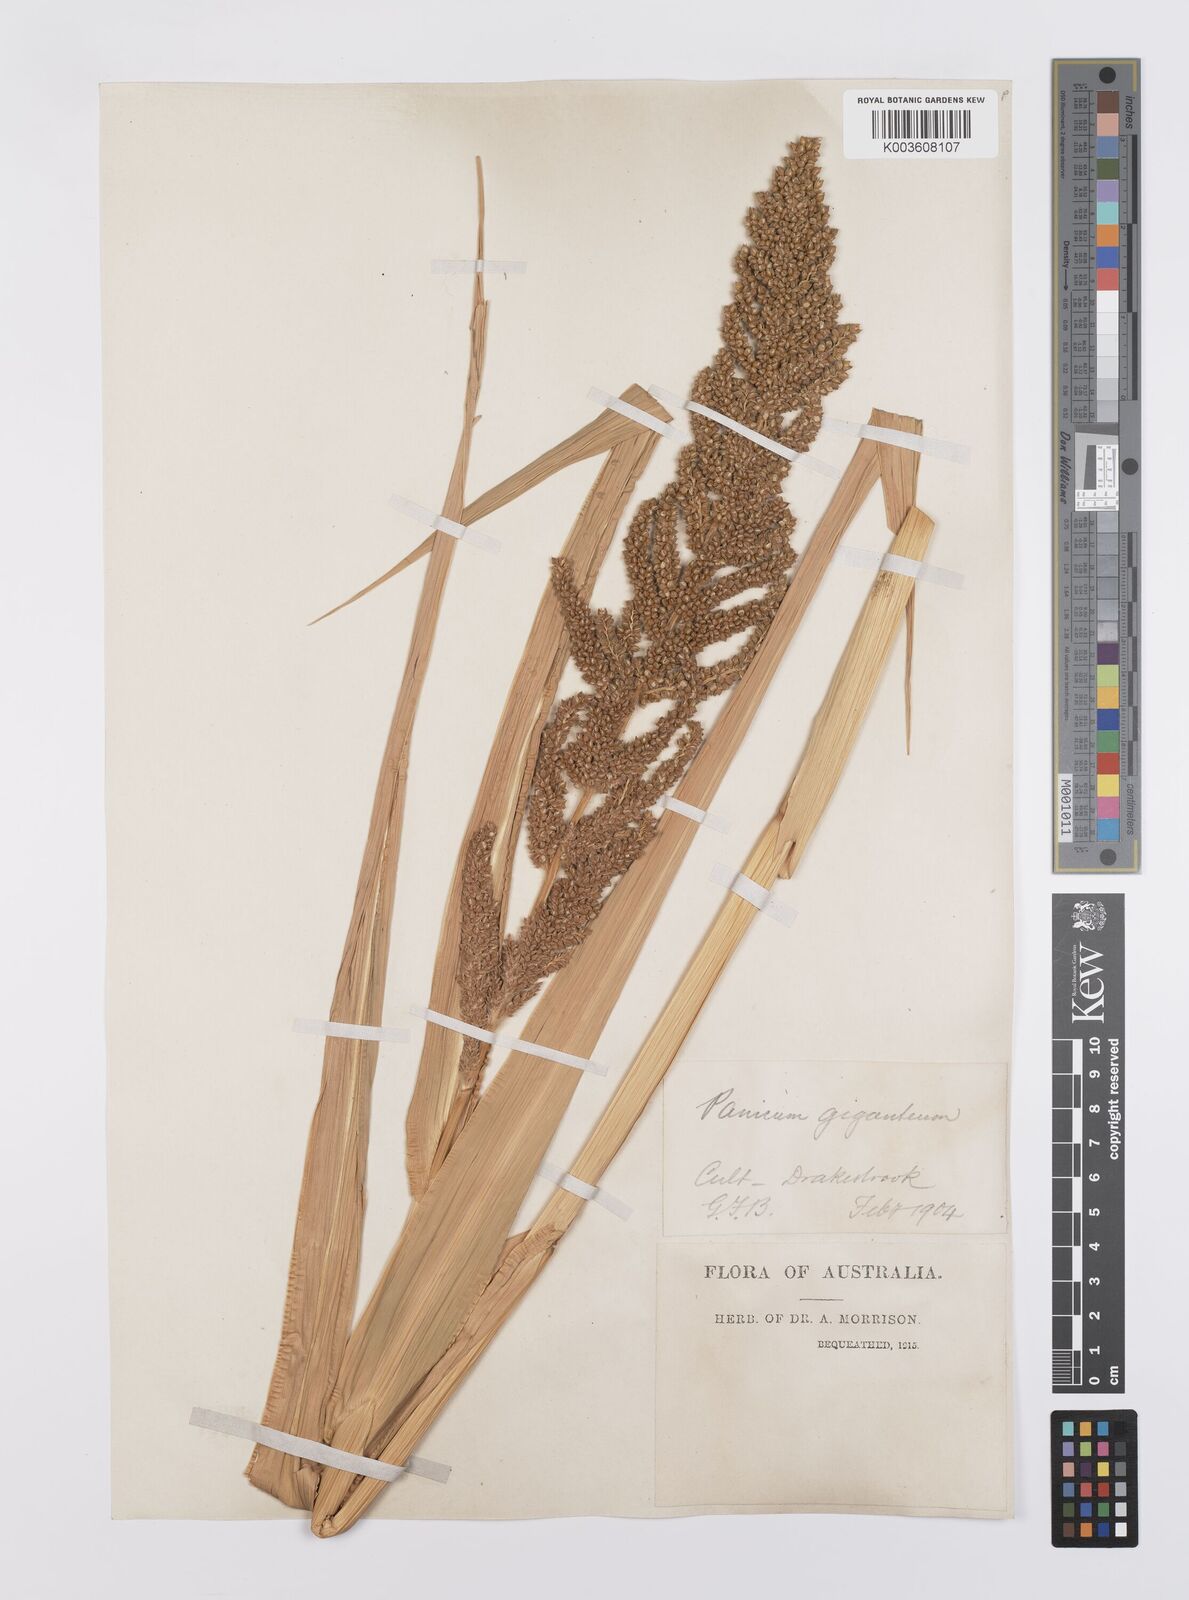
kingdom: Plantae
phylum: Tracheophyta
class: Liliopsida
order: Poales
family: Poaceae
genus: Echinochloa
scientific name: Echinochloa crus-galli
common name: Cockspur
